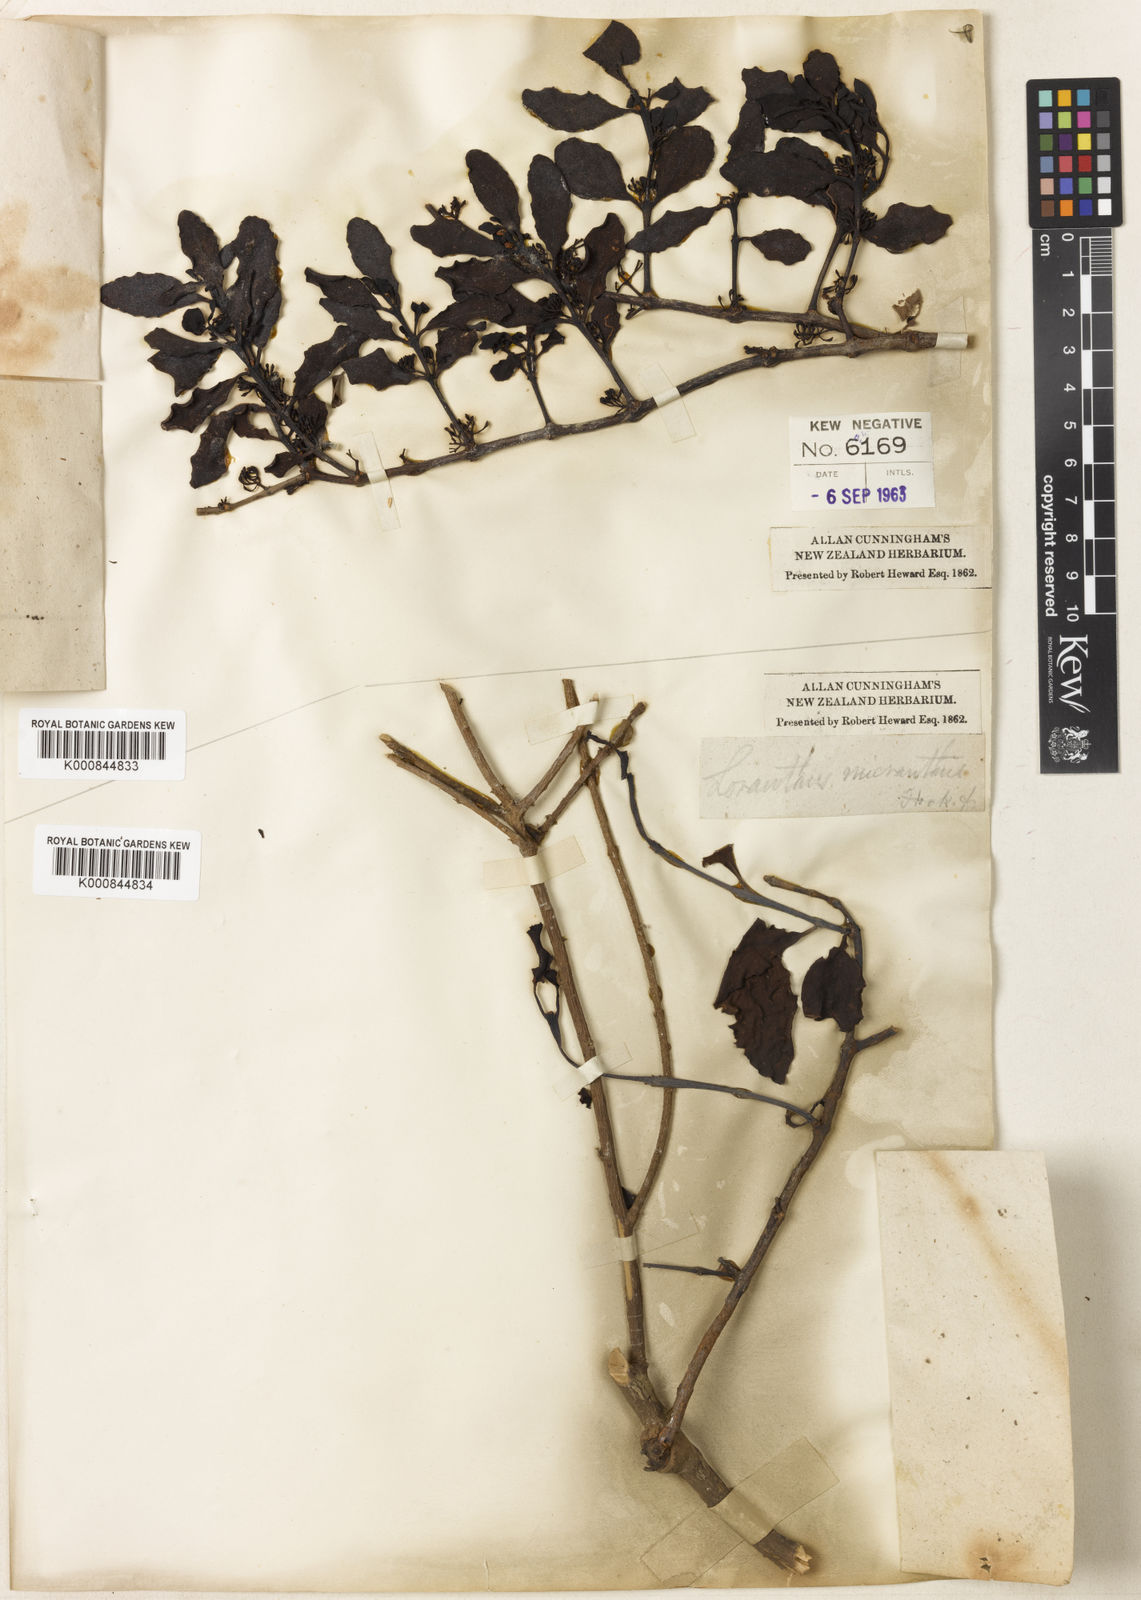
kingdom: Plantae
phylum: Tracheophyta
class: Magnoliopsida
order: Santalales
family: Loranthaceae
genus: Ileostylus
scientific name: Ileostylus micranthus
